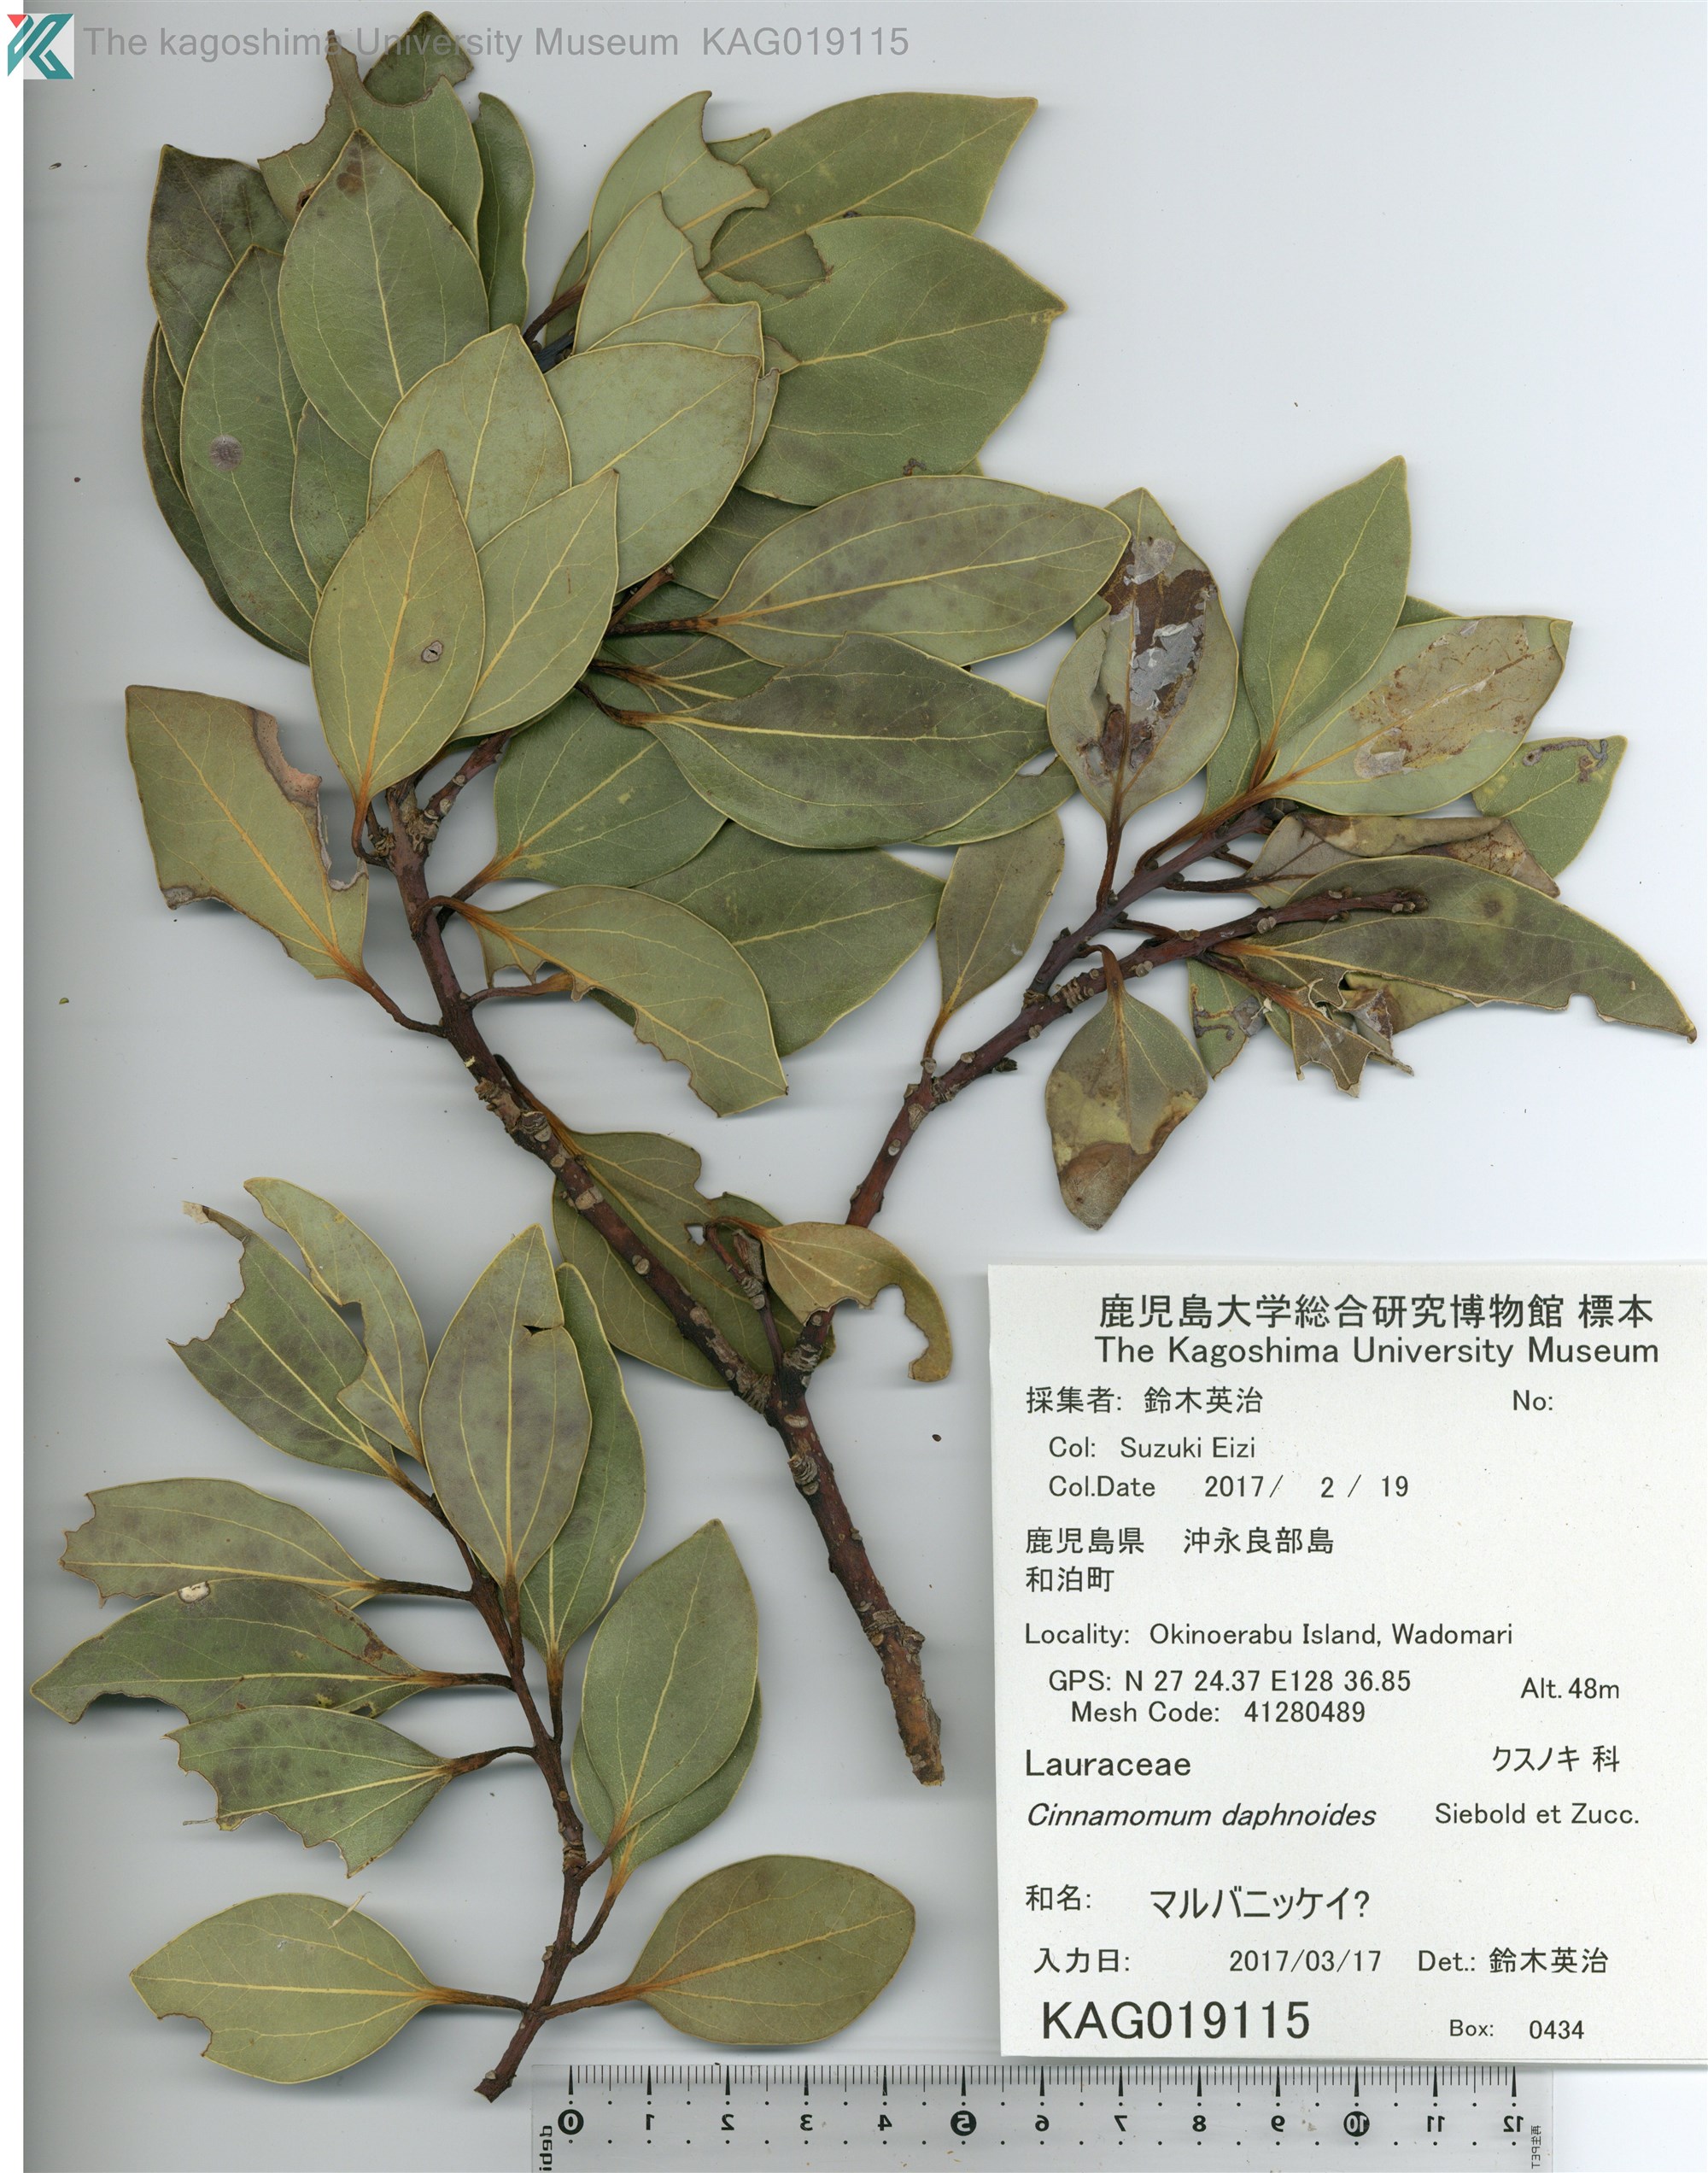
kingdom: Plantae
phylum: Tracheophyta
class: Magnoliopsida
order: Laurales
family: Lauraceae
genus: Cinnamomum
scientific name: Cinnamomum chekiangense
